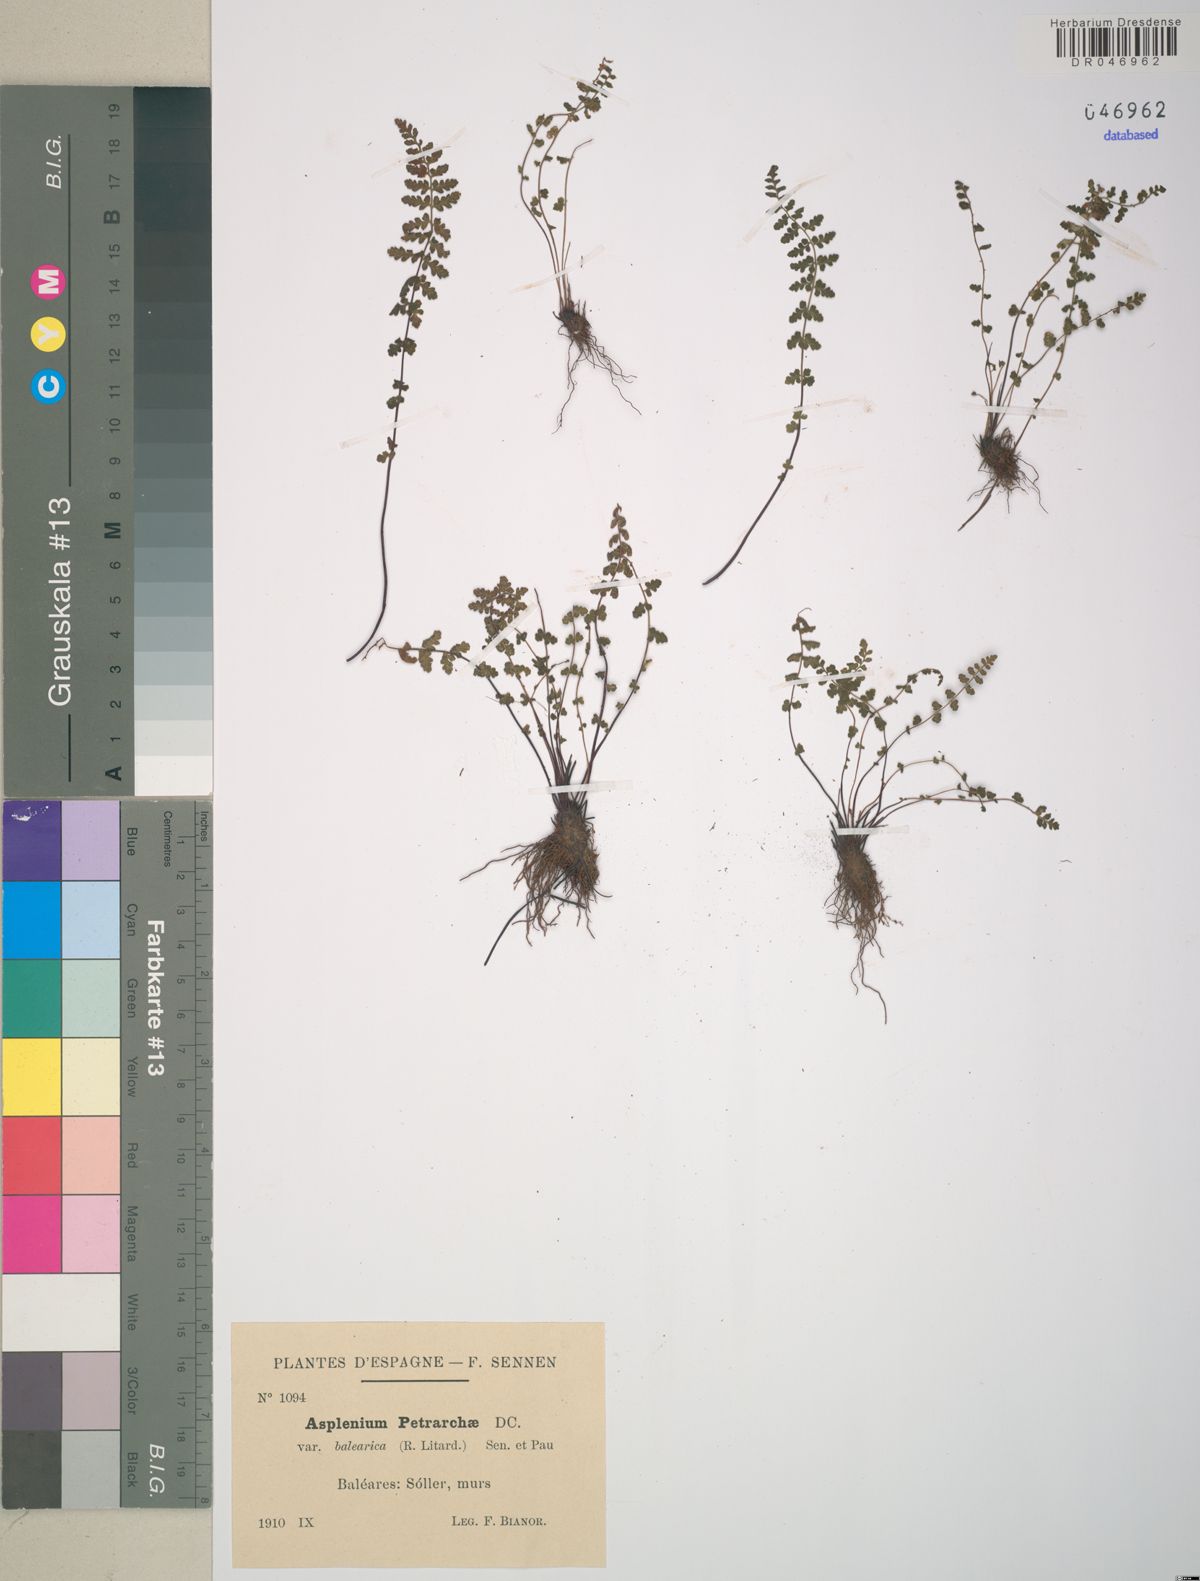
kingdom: Plantae
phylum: Tracheophyta
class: Polypodiopsida
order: Polypodiales
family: Aspleniaceae
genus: Asplenium
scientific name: Asplenium petrarchae
